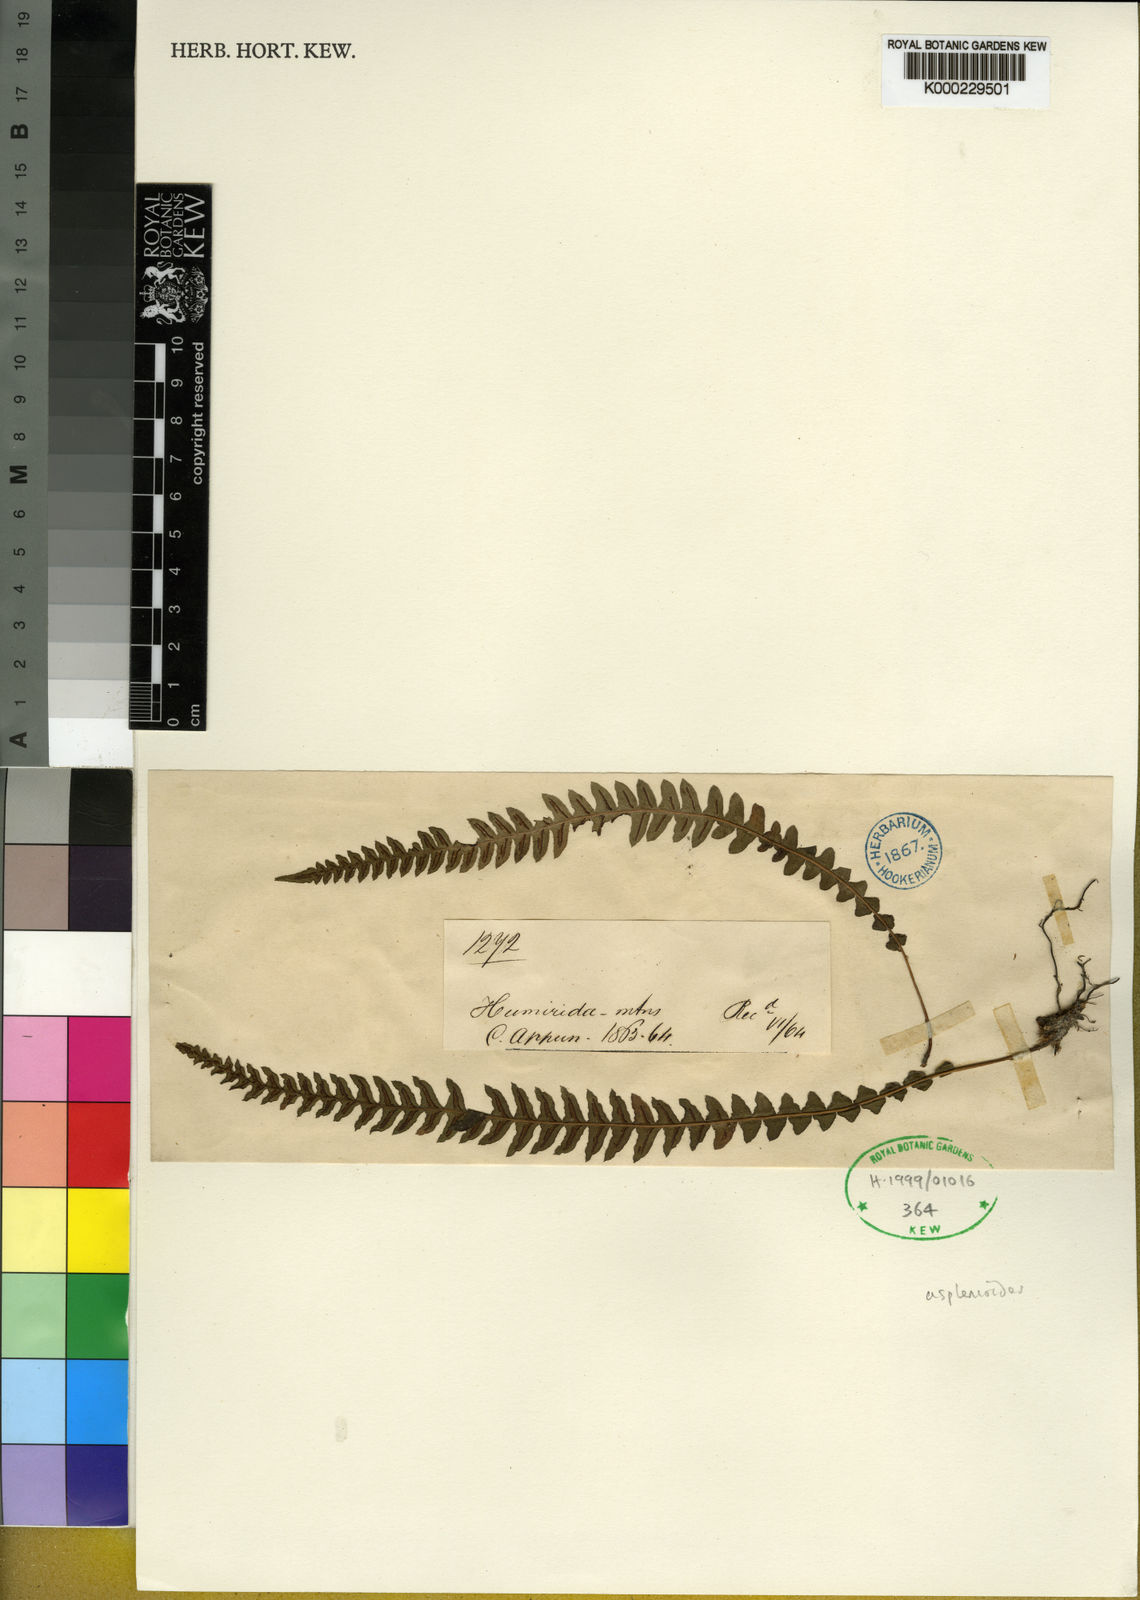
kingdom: Plantae
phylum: Tracheophyta
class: Polypodiopsida
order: Polypodiales
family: Blechnaceae
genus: Blechnum
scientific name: Blechnum asplenioides
